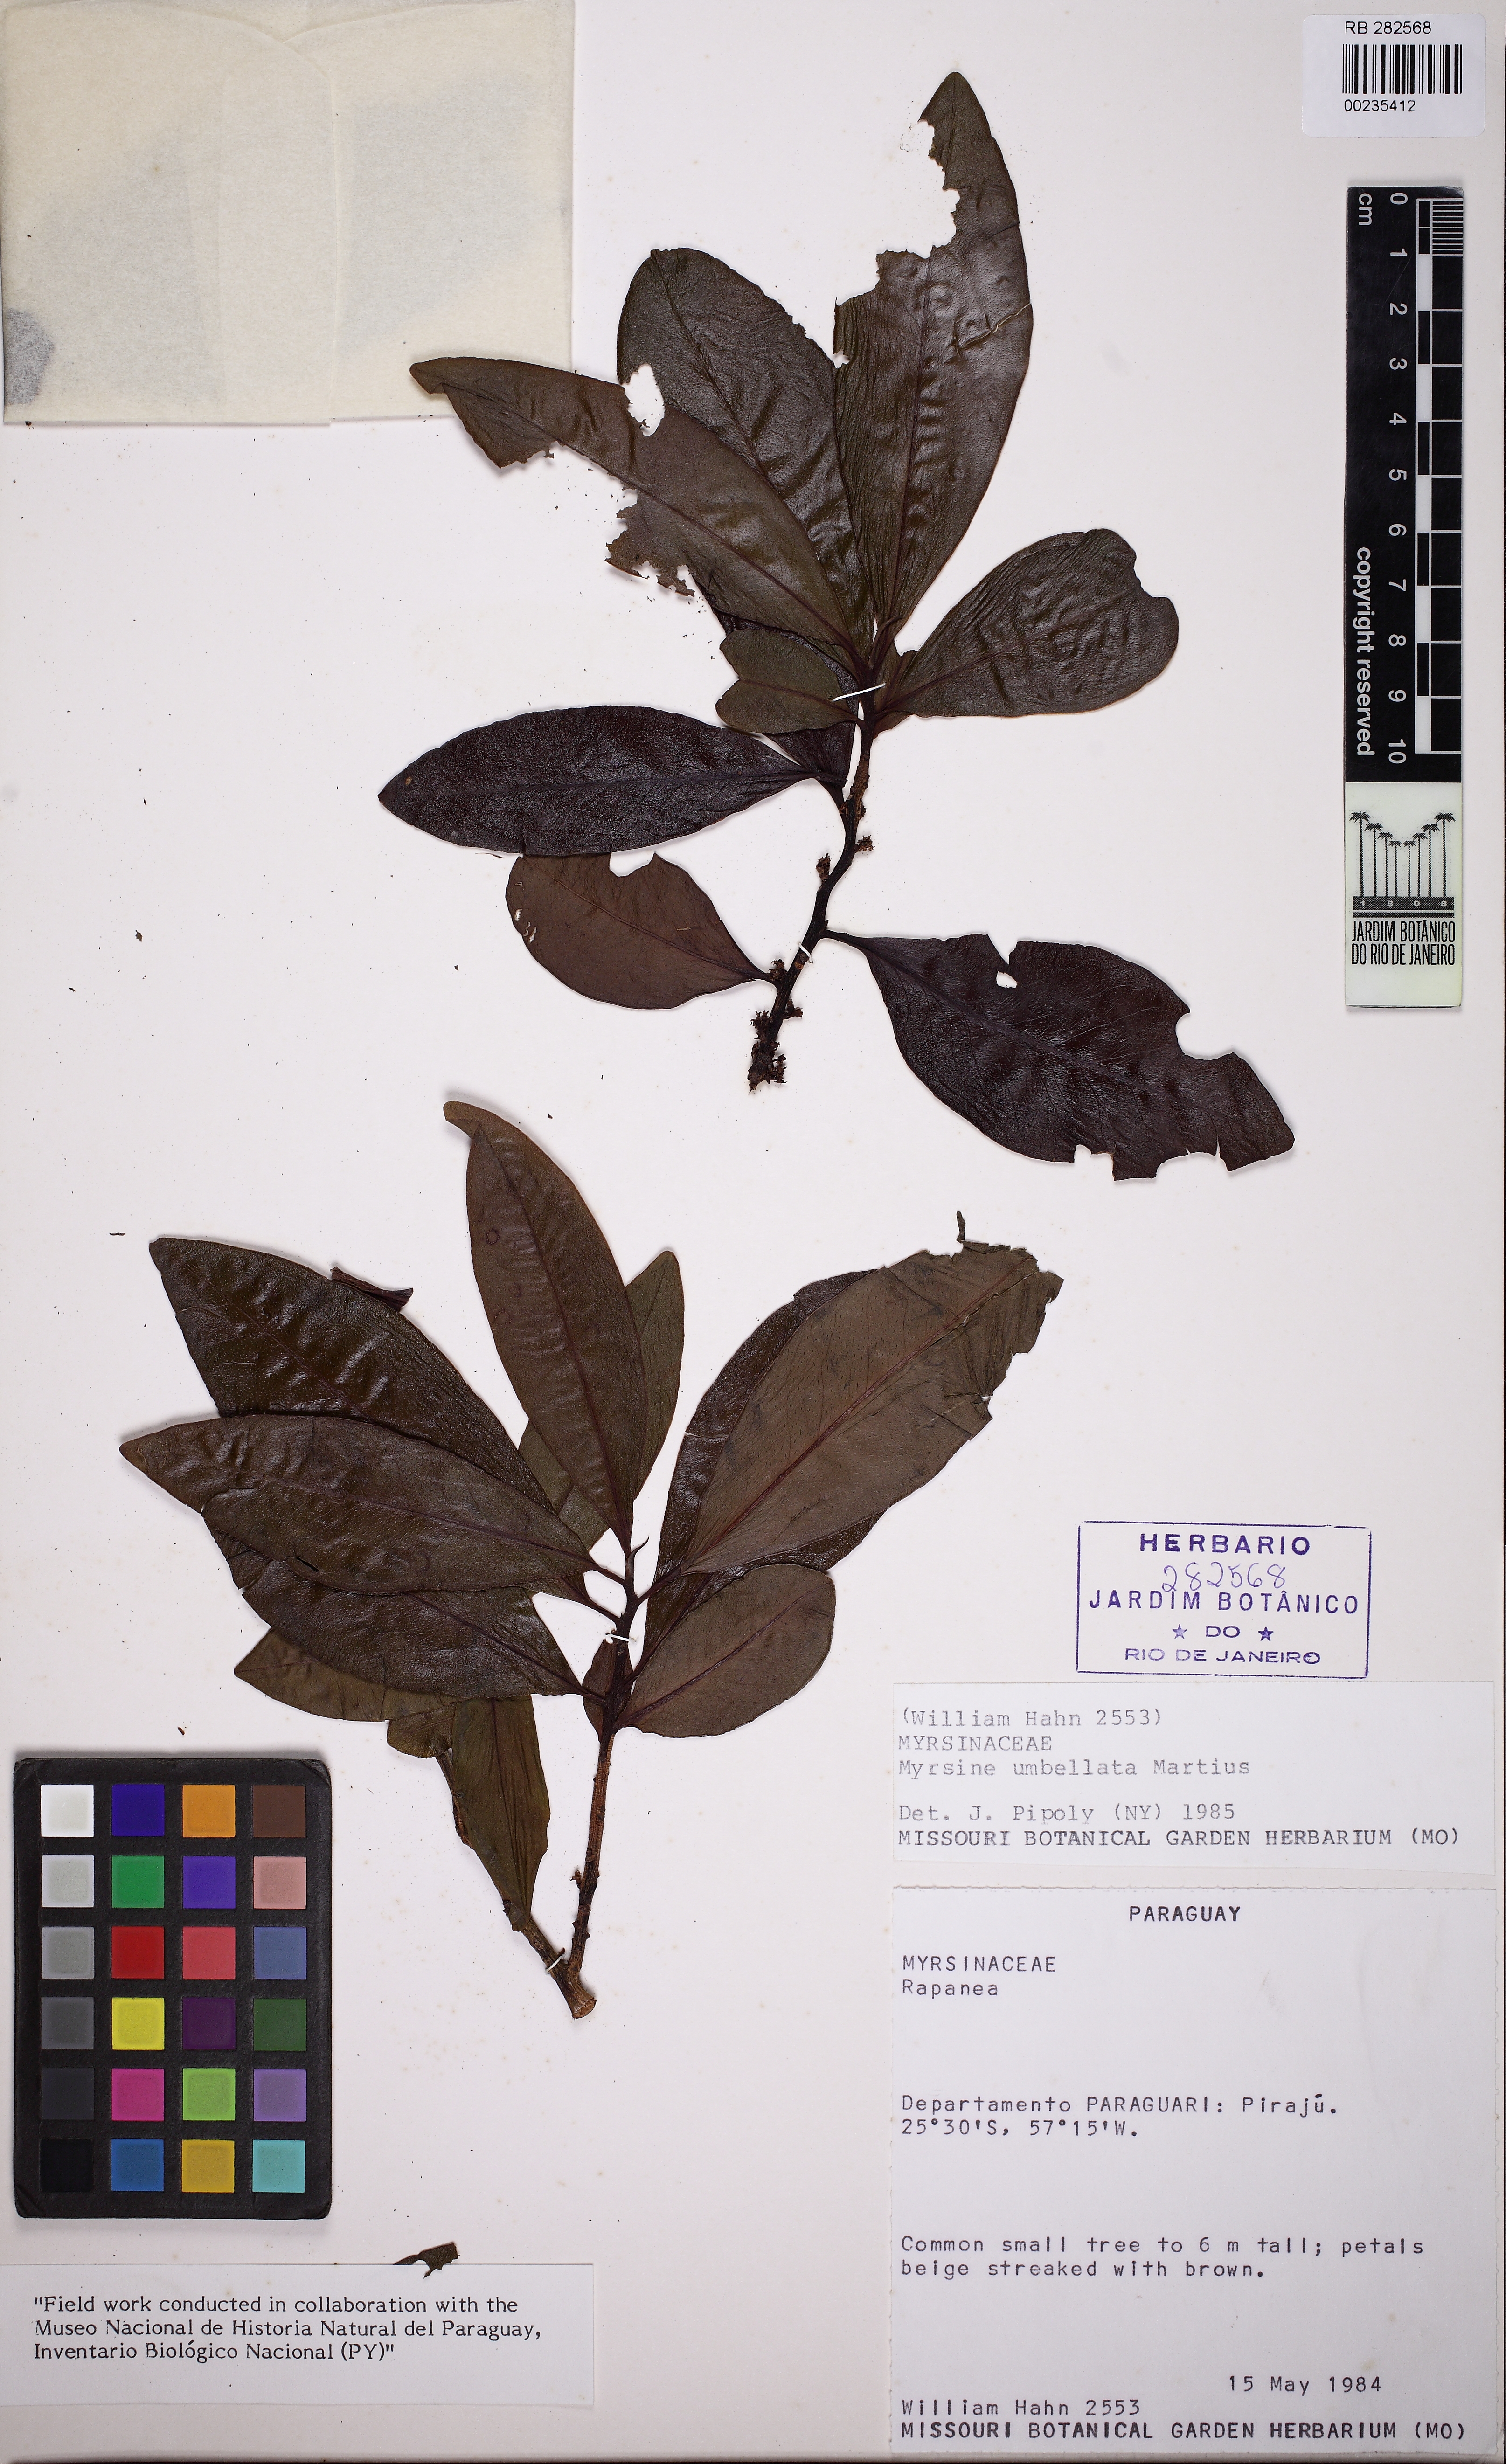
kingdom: Plantae
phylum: Tracheophyta
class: Magnoliopsida
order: Ericales
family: Primulaceae
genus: Myrsine
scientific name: Myrsine umbellata
